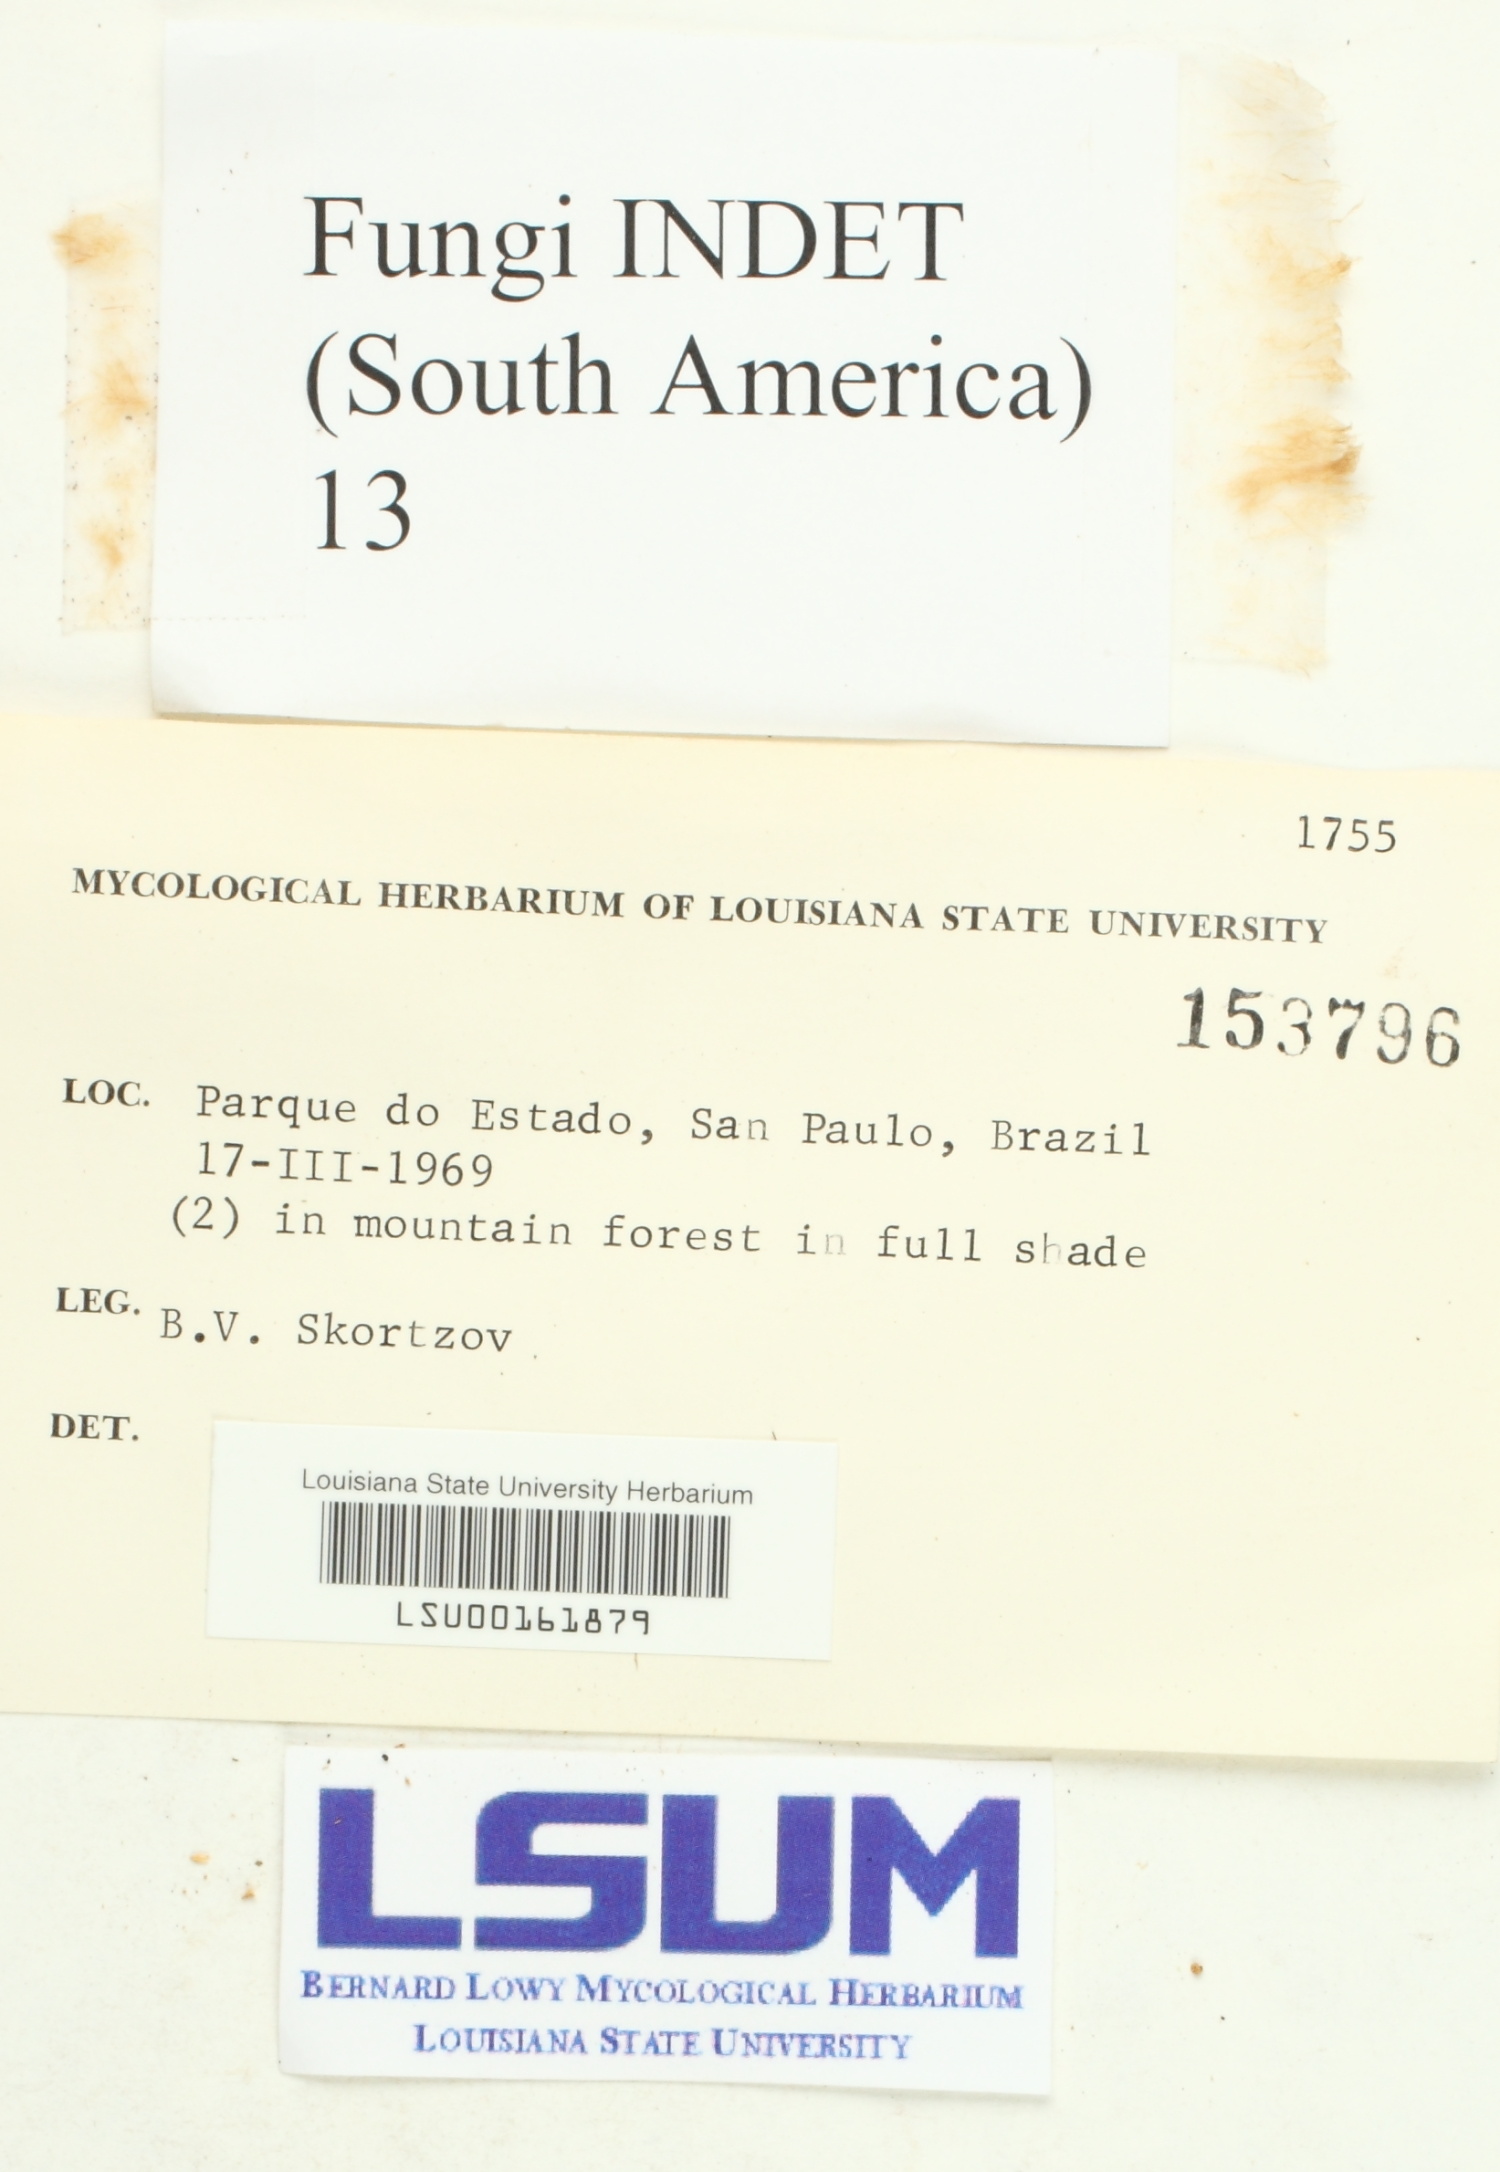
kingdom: Fungi
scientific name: Fungi
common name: Fungi
